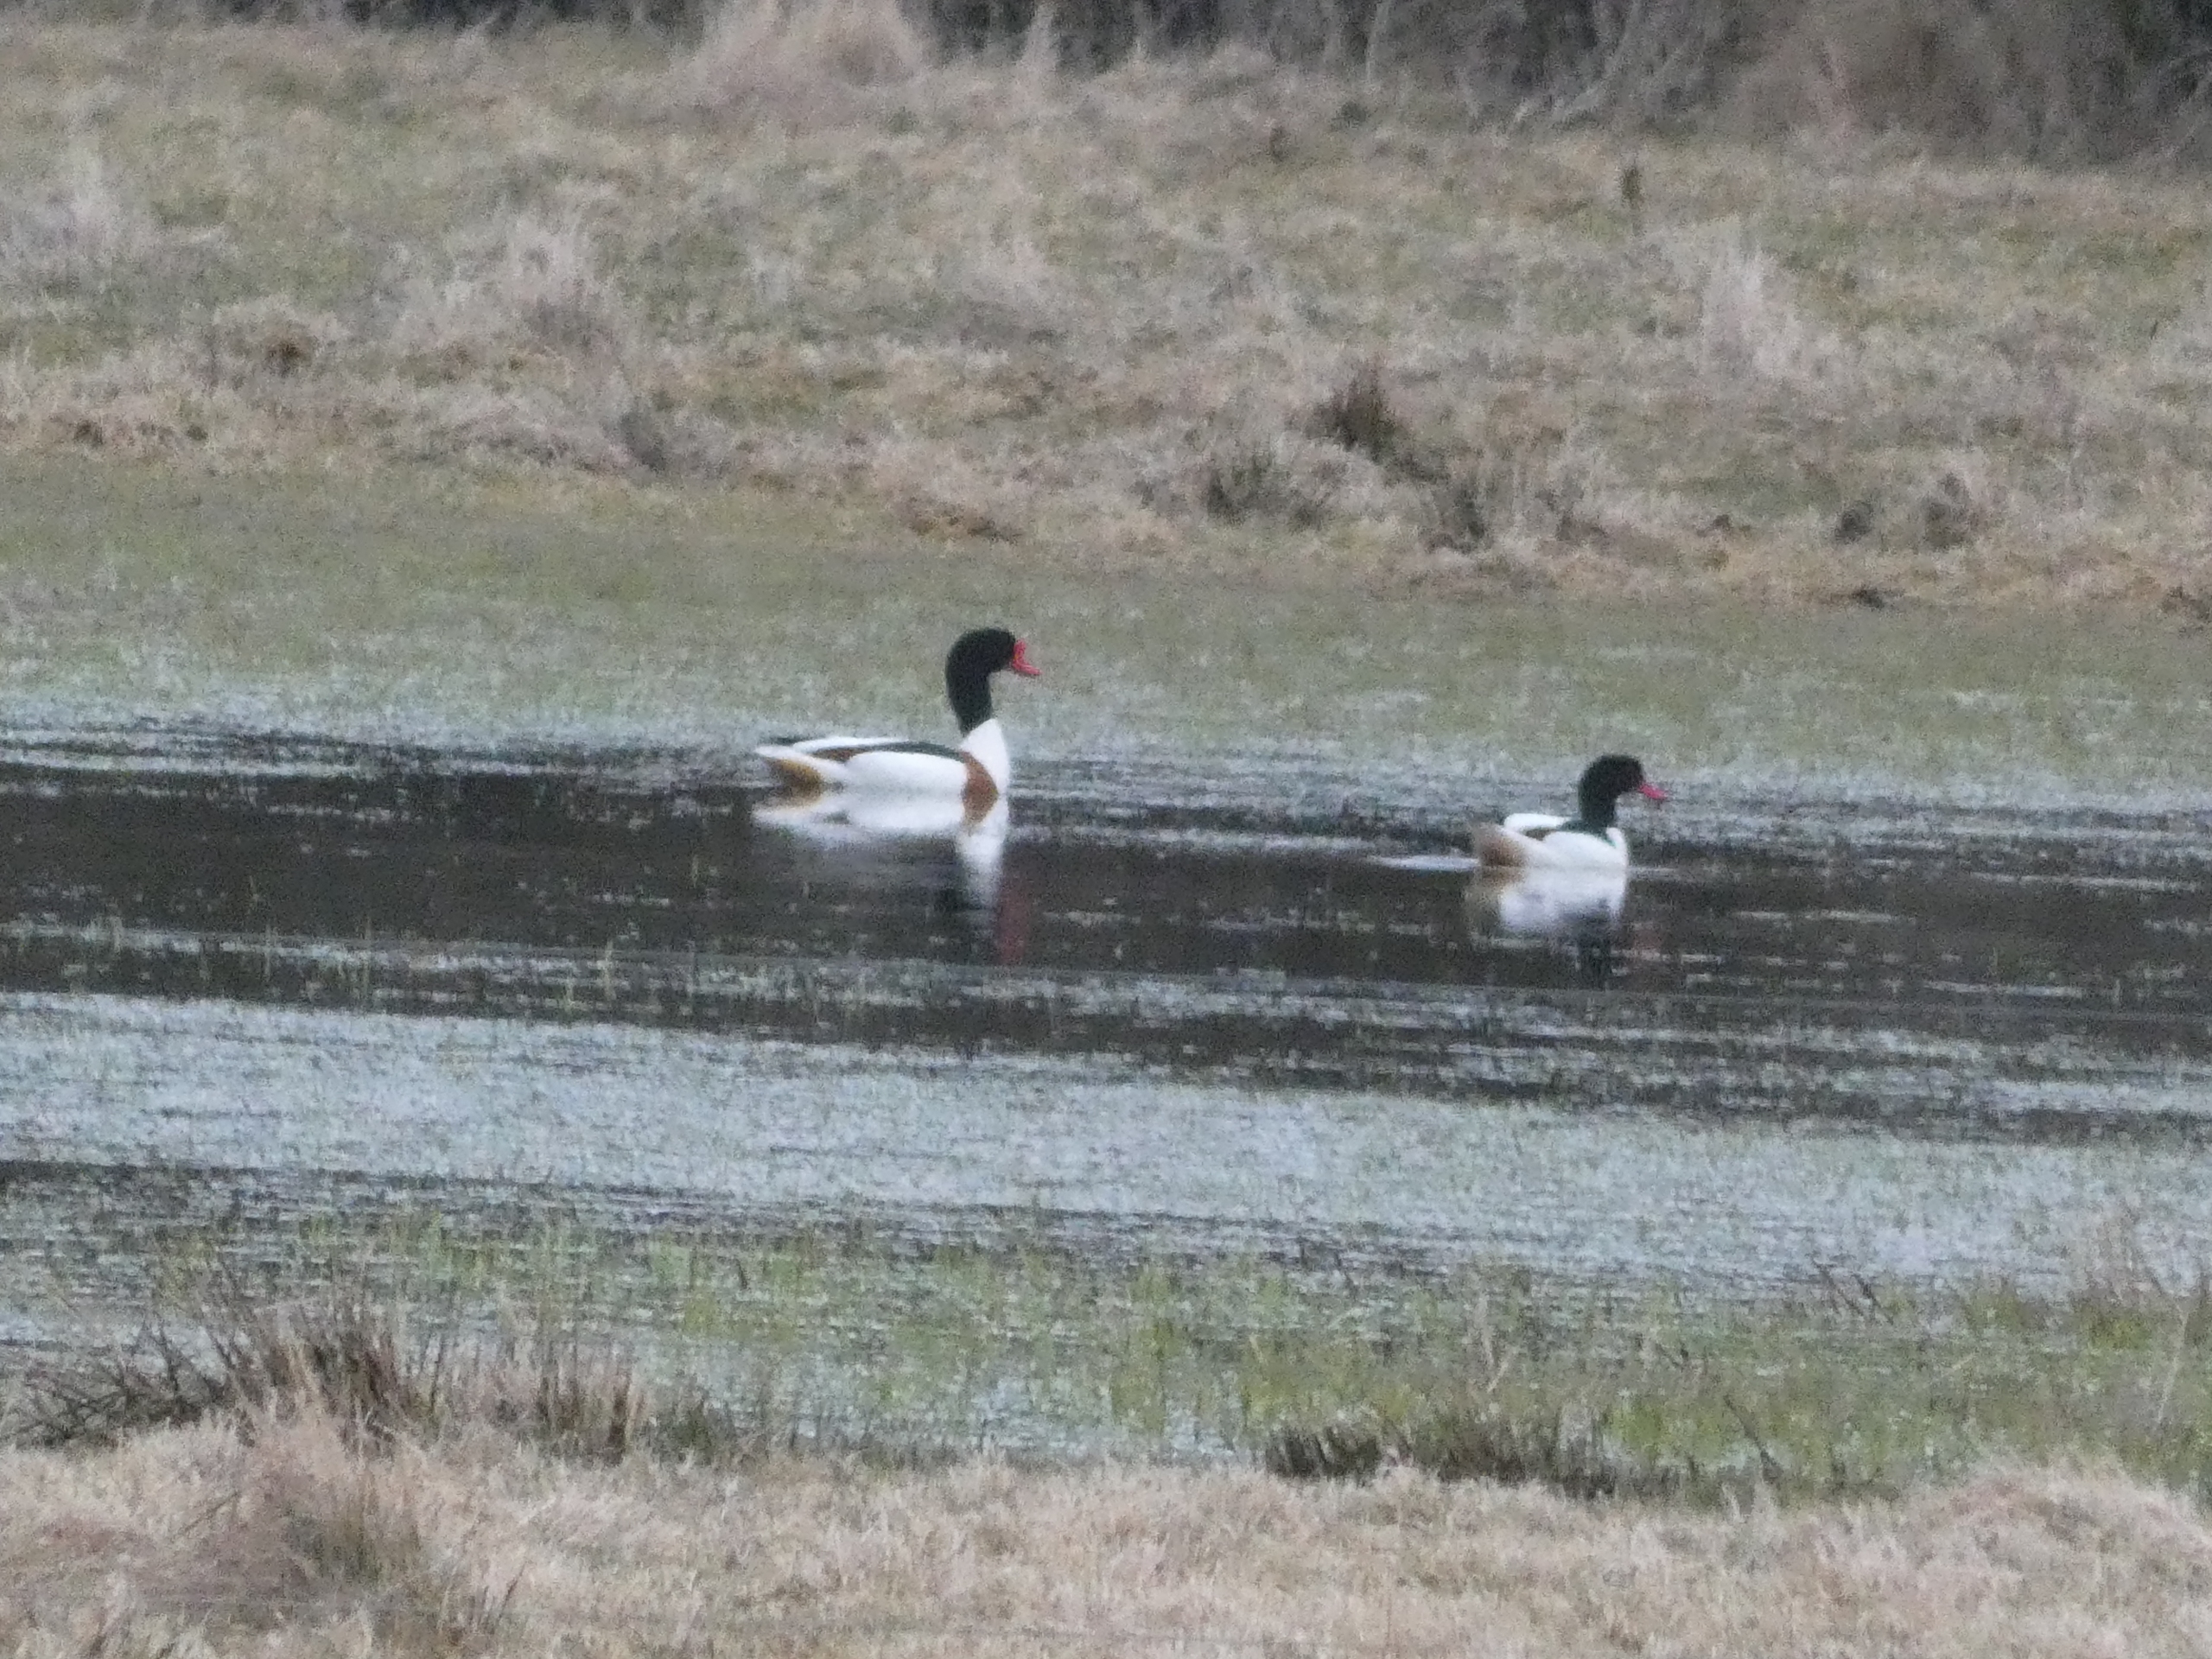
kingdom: Animalia
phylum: Chordata
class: Aves
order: Anseriformes
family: Anatidae
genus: Tadorna
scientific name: Tadorna tadorna
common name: Gravand
